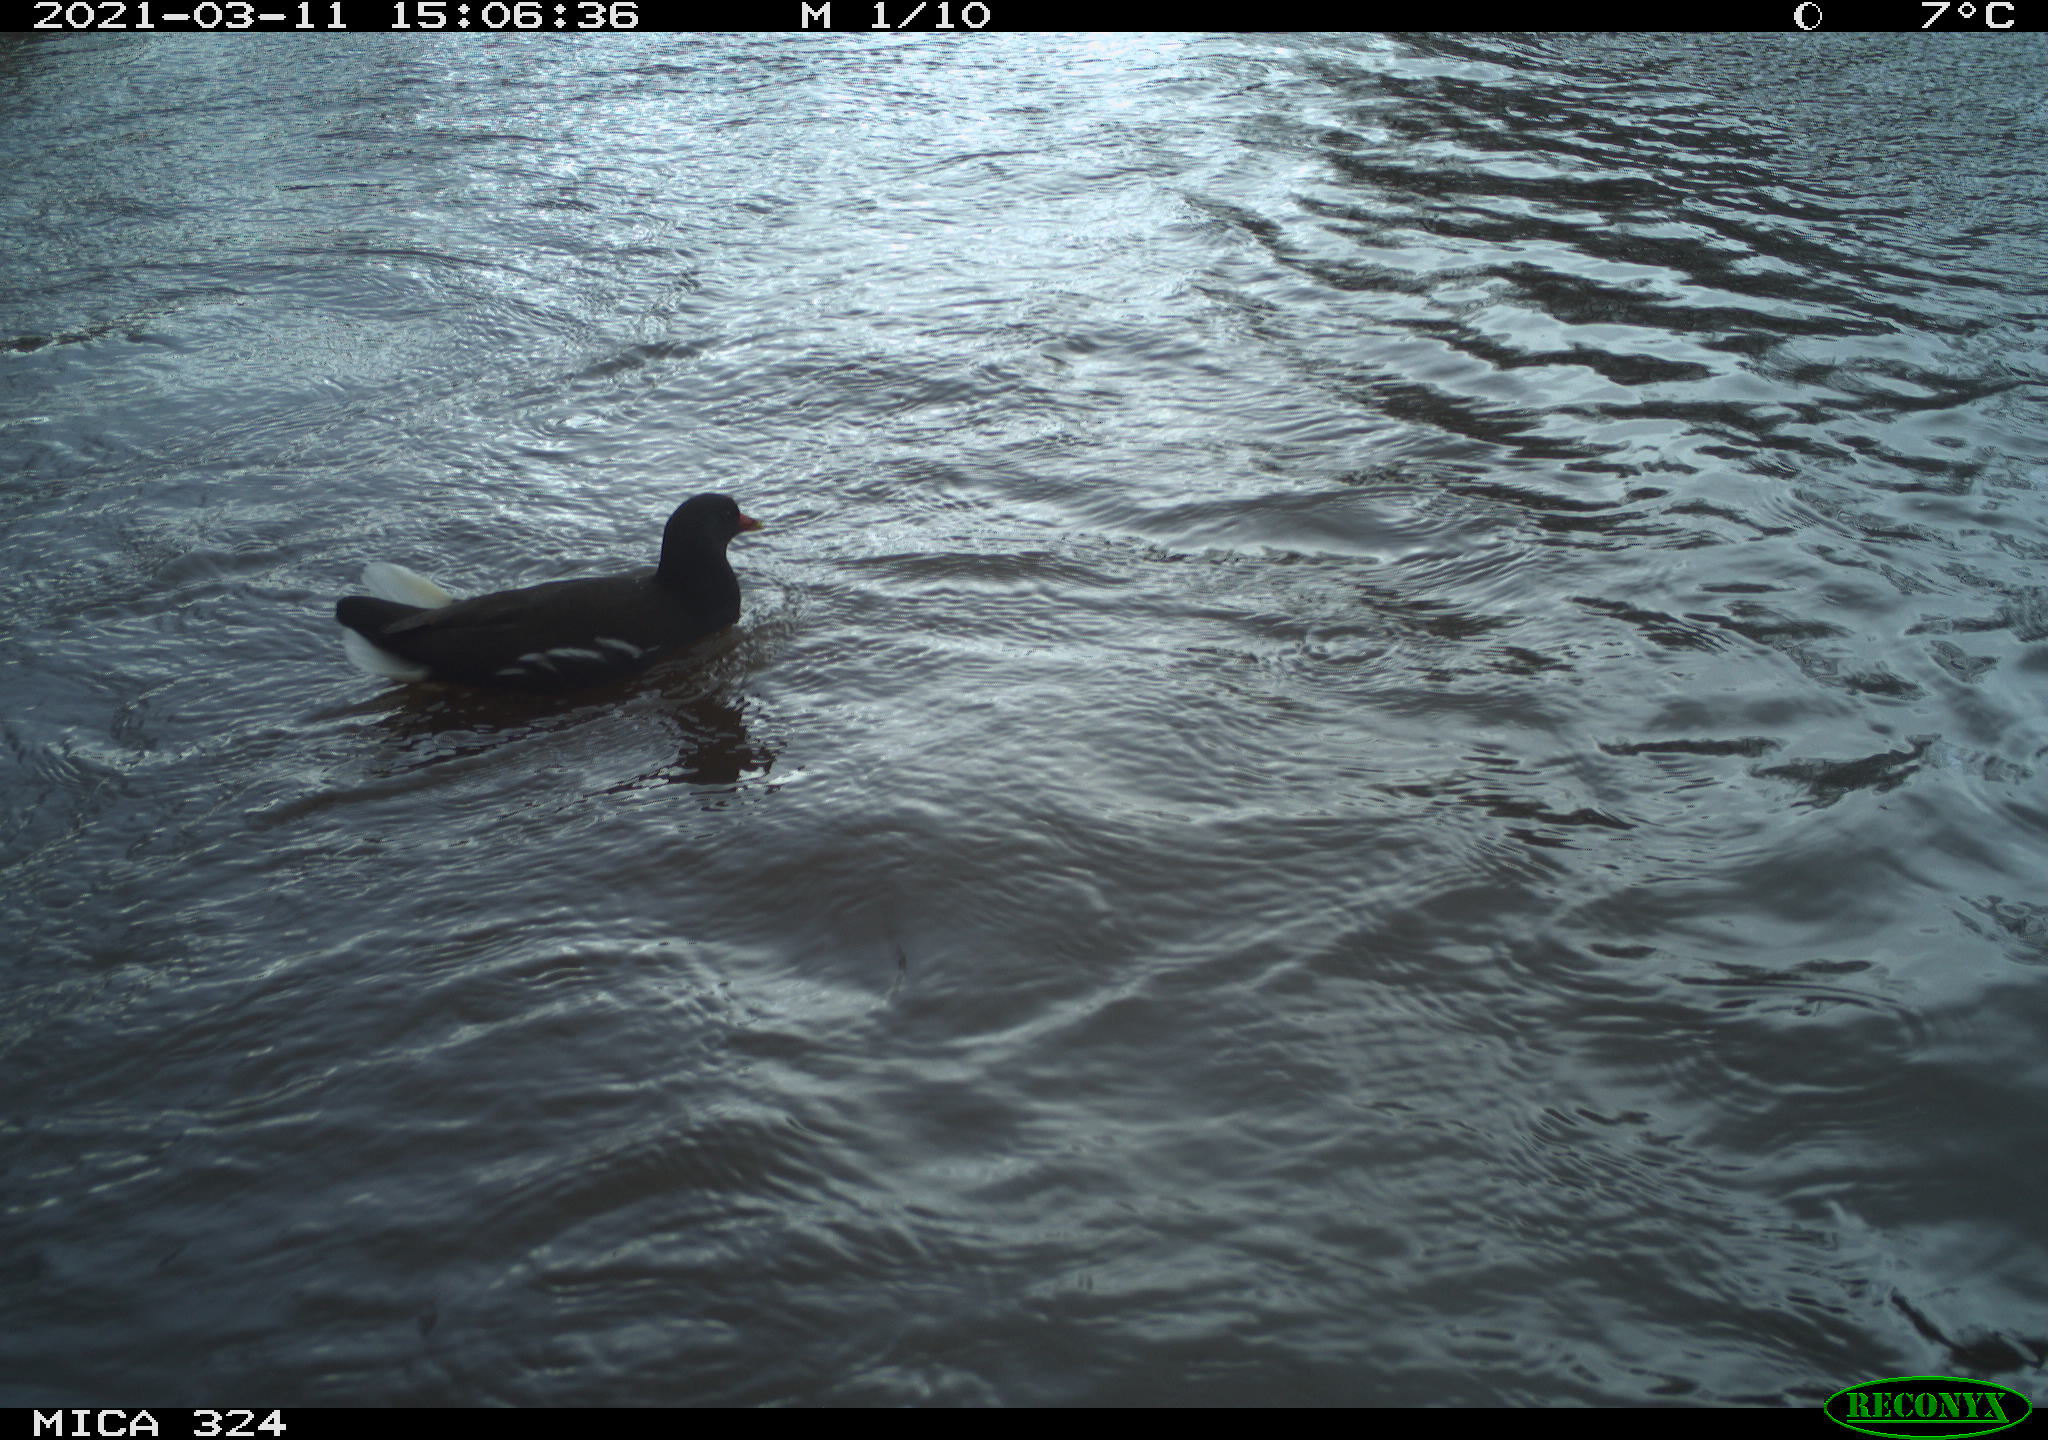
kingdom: Animalia
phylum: Chordata
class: Aves
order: Gruiformes
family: Rallidae
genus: Gallinula
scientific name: Gallinula chloropus
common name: Common moorhen
